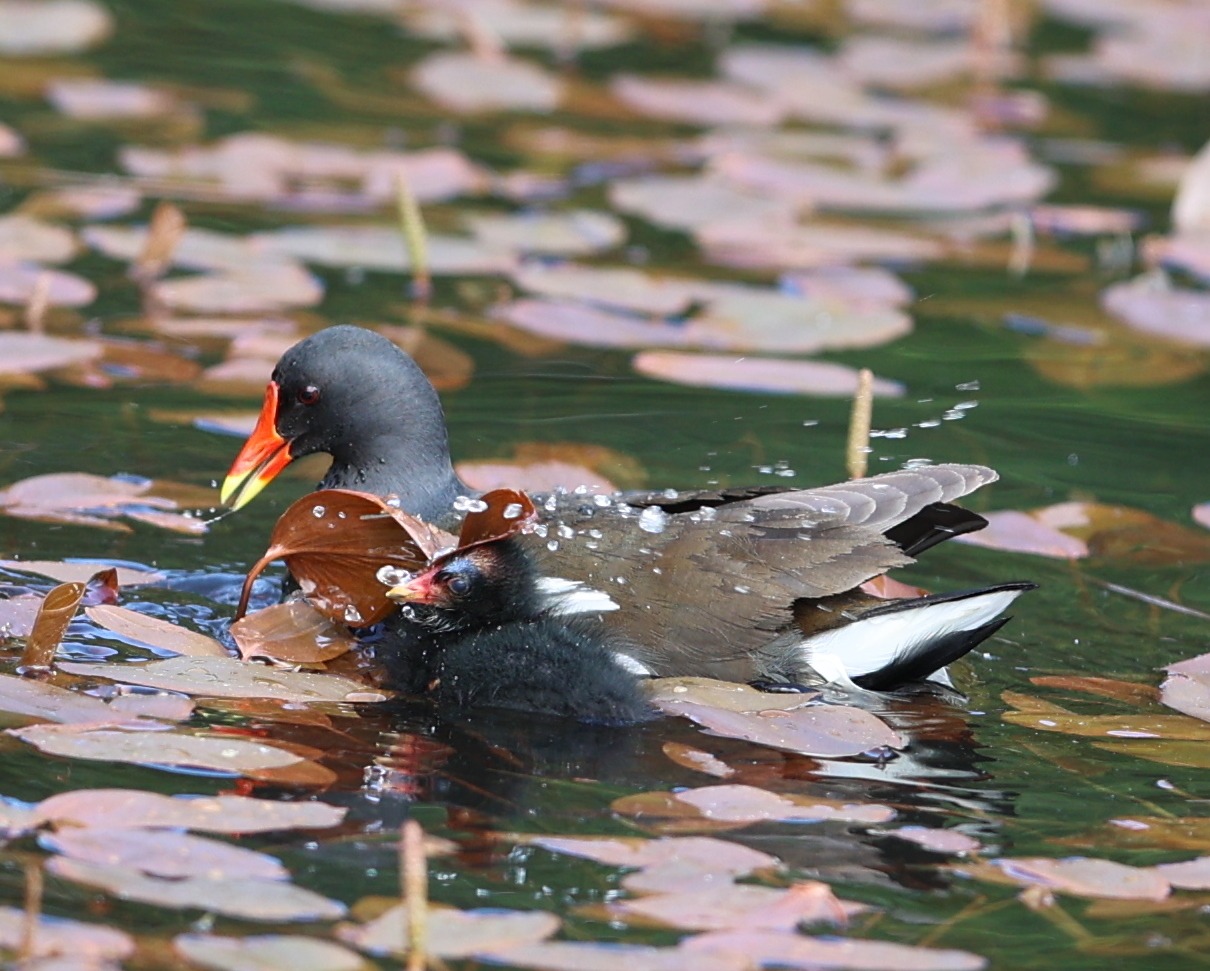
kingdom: Animalia
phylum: Chordata
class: Aves
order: Gruiformes
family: Rallidae
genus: Gallinula
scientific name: Gallinula chloropus
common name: Grønbenet rørhøne
